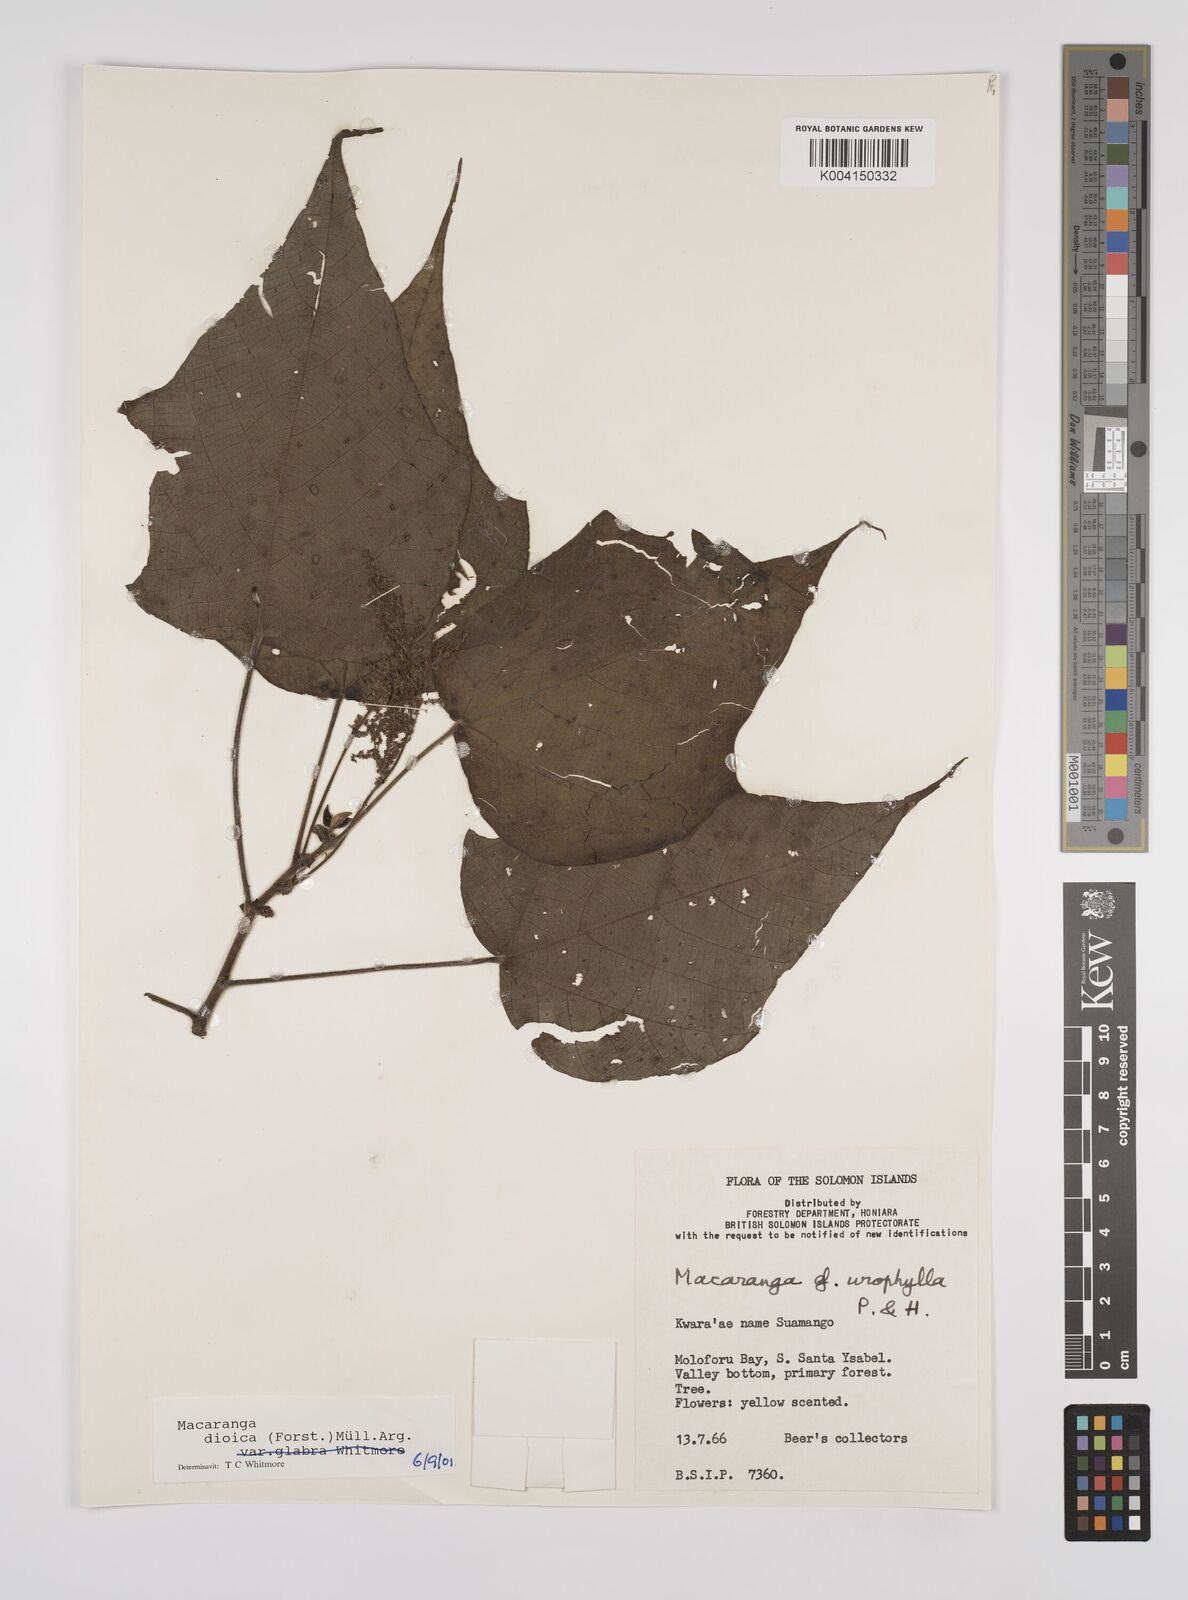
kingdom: Plantae
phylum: Tracheophyta
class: Magnoliopsida
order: Malpighiales
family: Euphorbiaceae
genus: Macaranga
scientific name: Macaranga dioica
